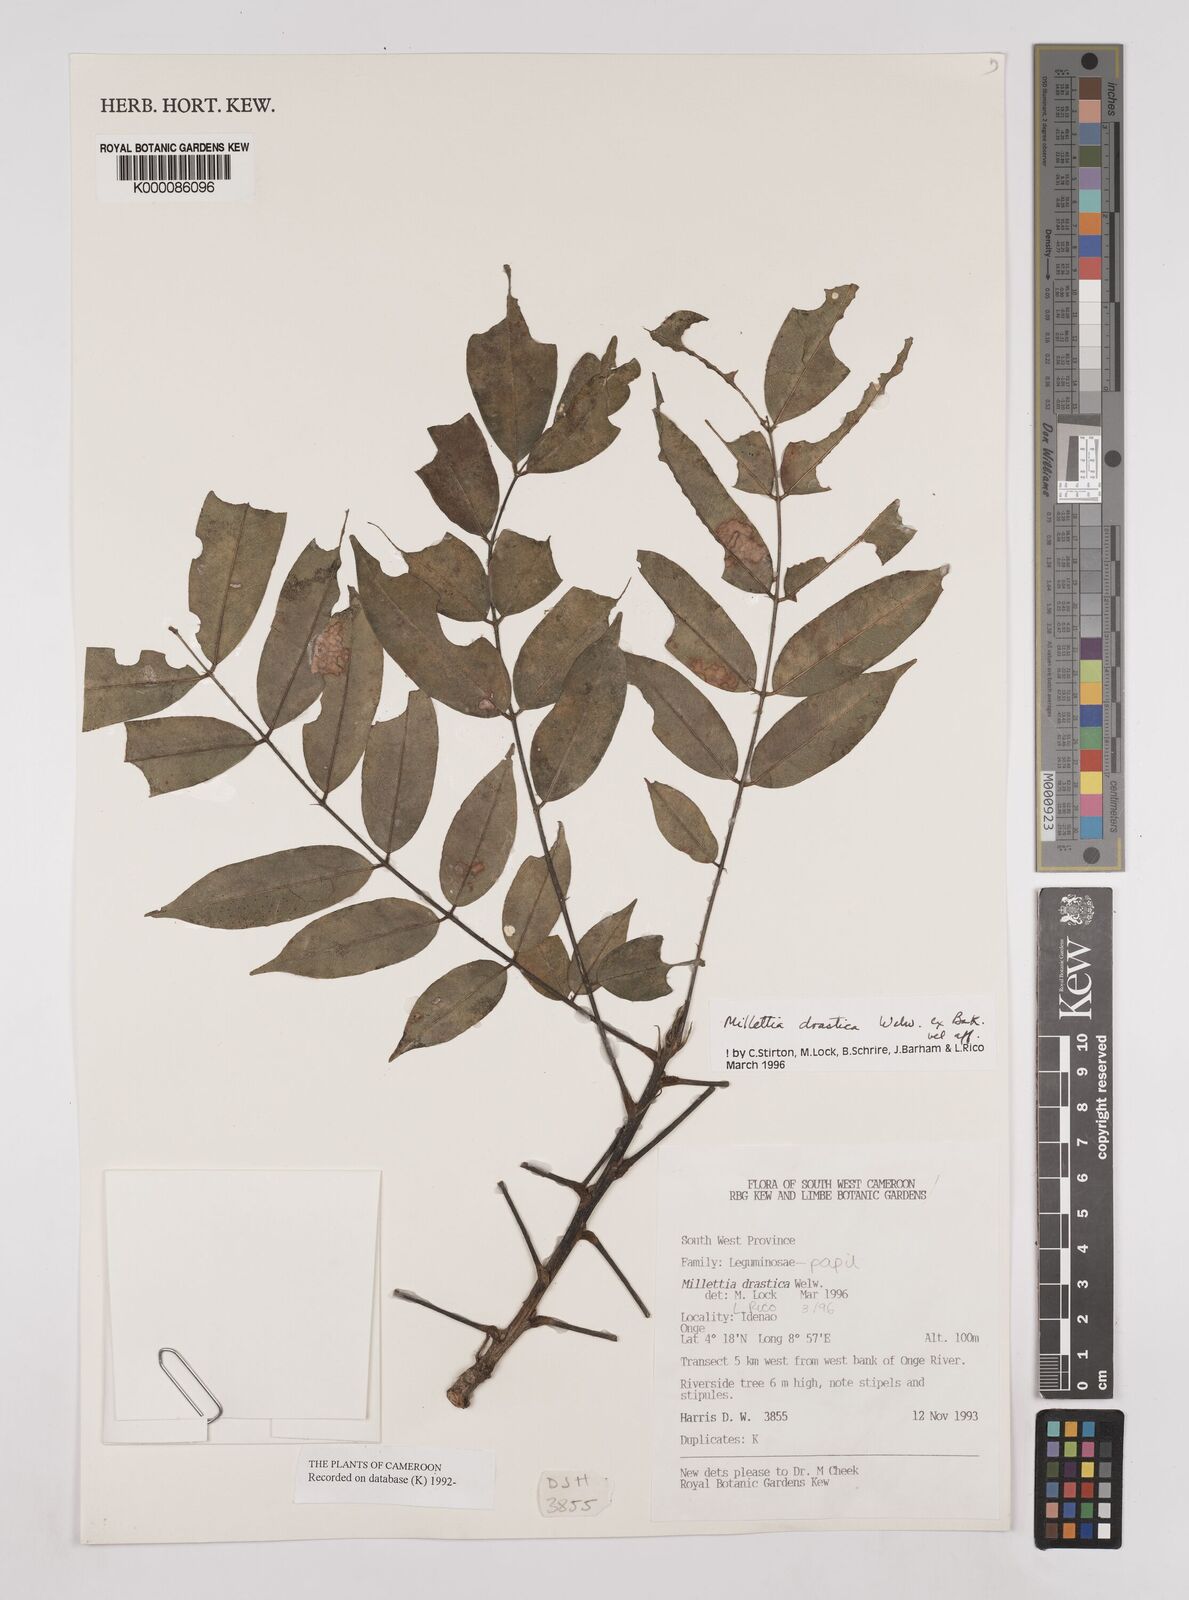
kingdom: Plantae
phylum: Tracheophyta
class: Magnoliopsida
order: Fabales
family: Fabaceae
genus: Millettia
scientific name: Millettia
